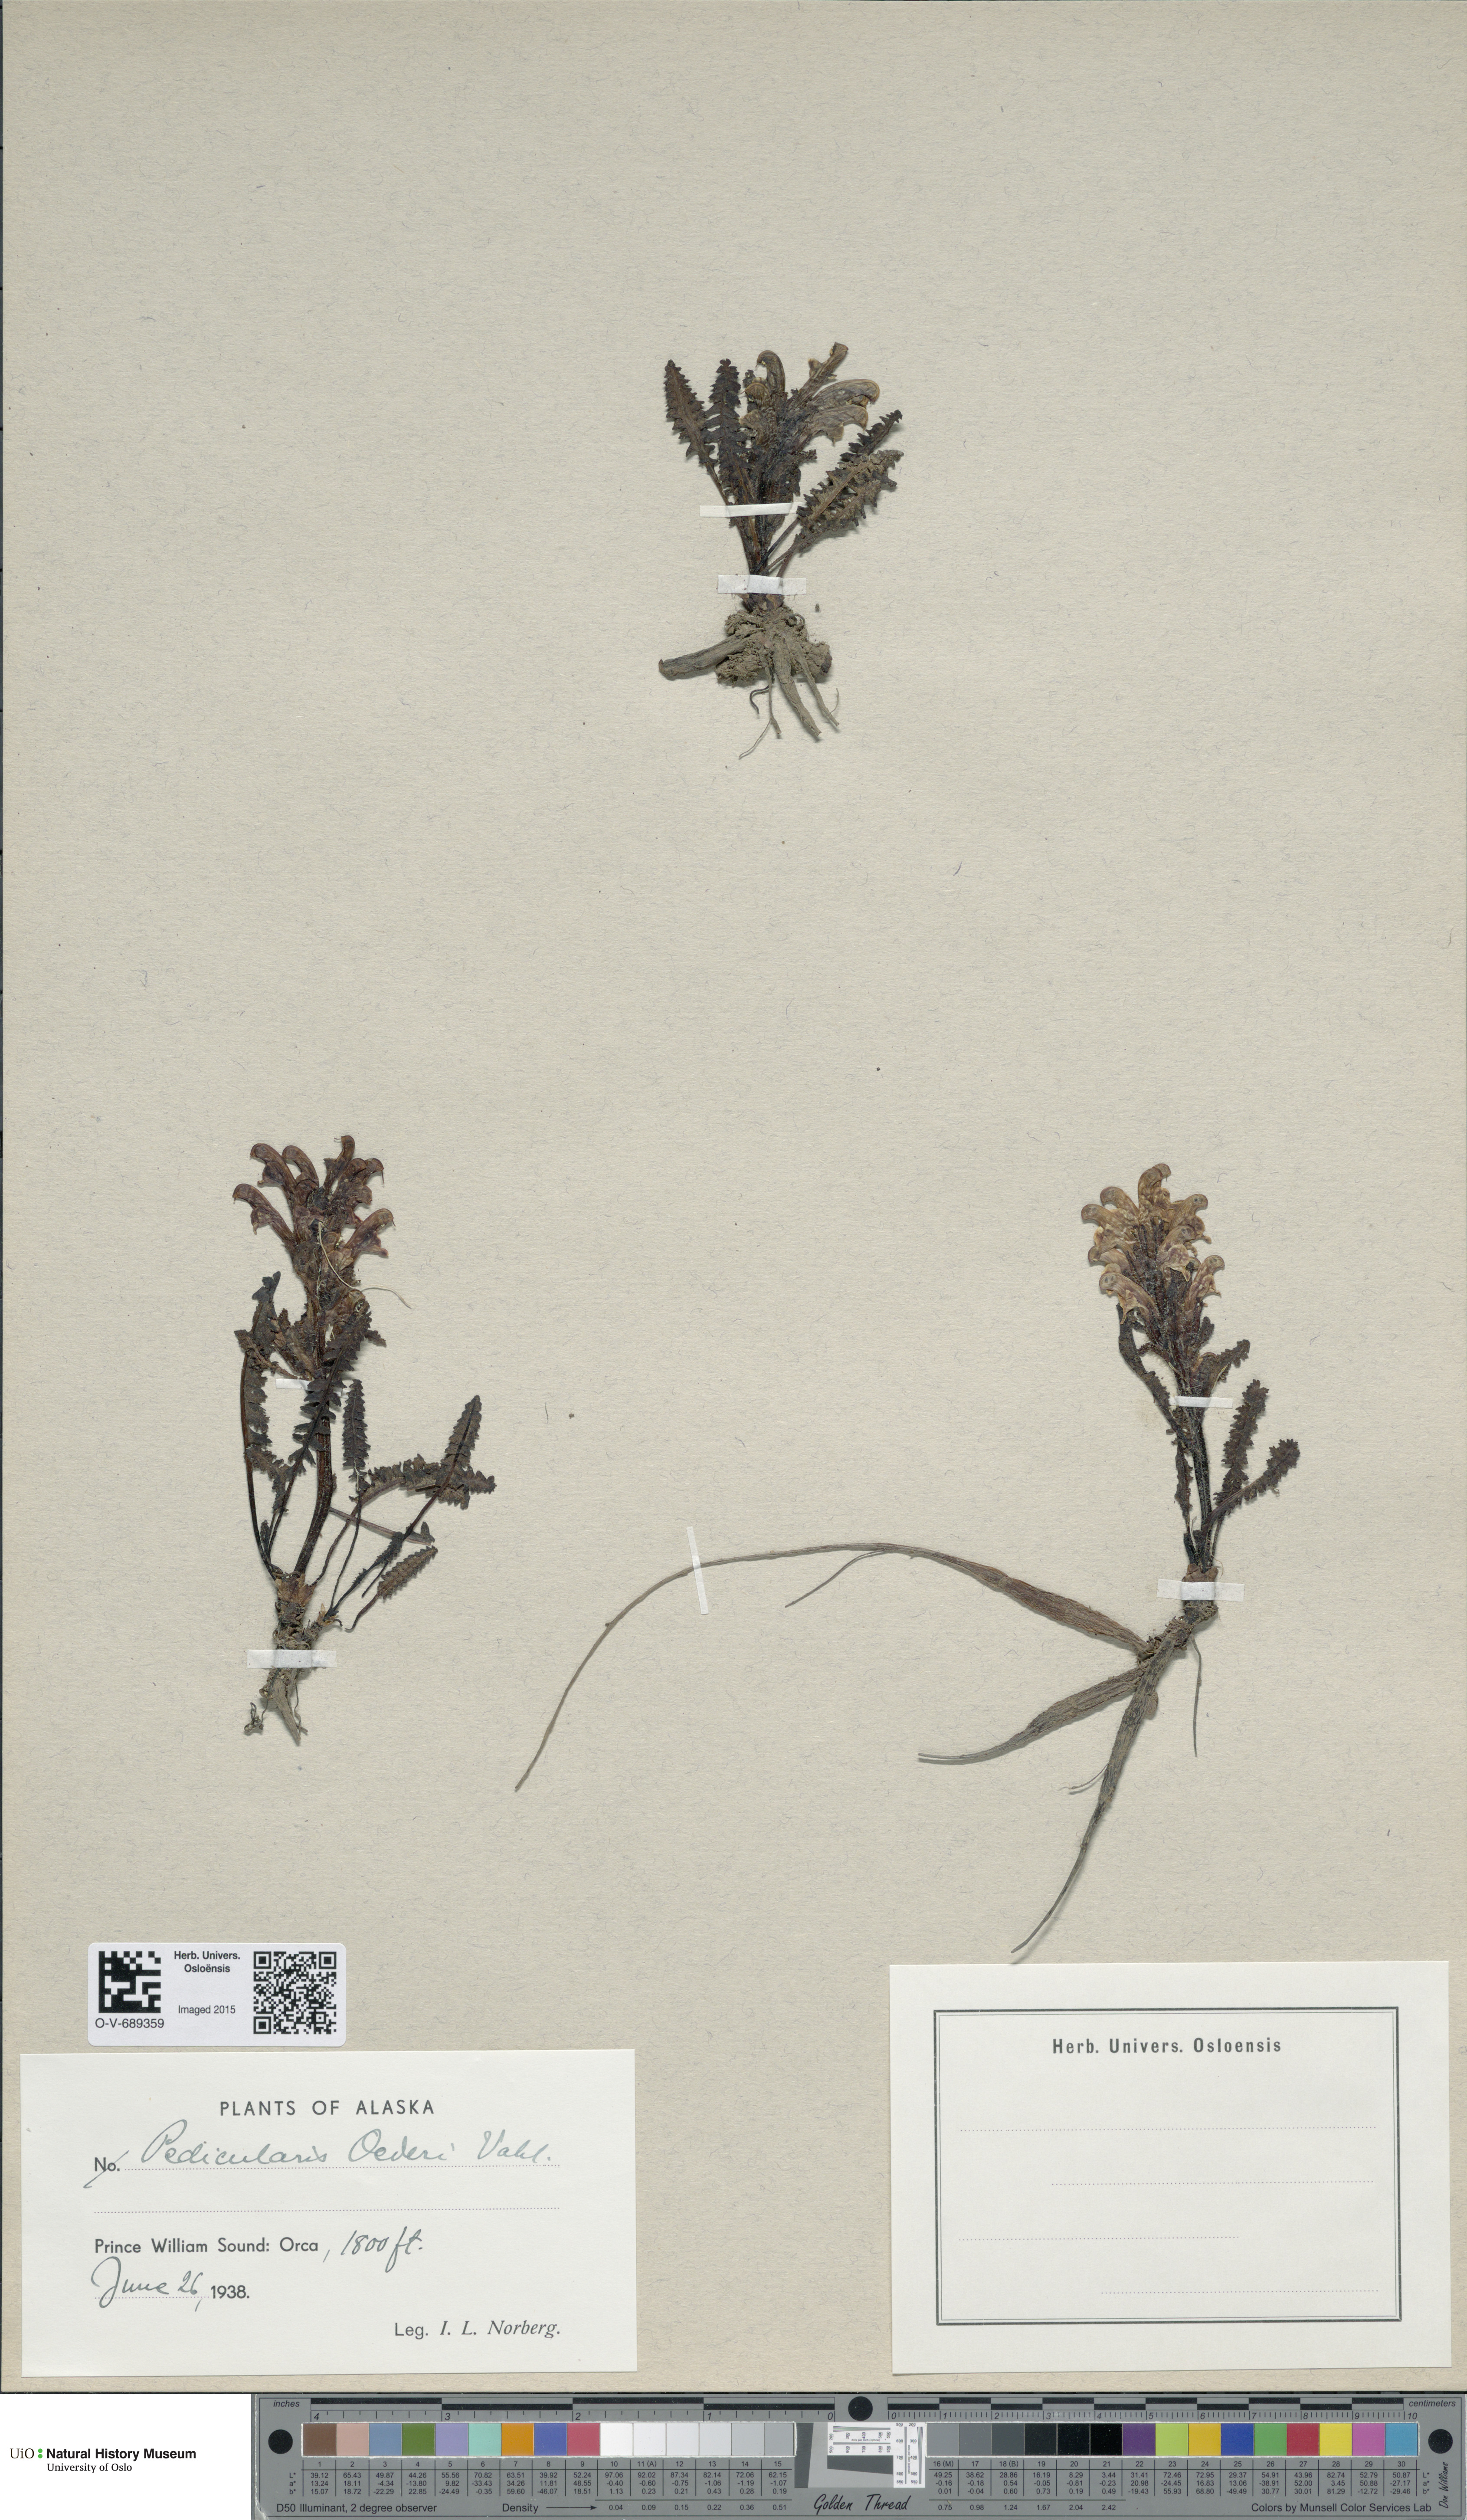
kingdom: Plantae
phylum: Tracheophyta
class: Magnoliopsida
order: Lamiales
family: Orobanchaceae
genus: Pedicularis
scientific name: Pedicularis oederi
